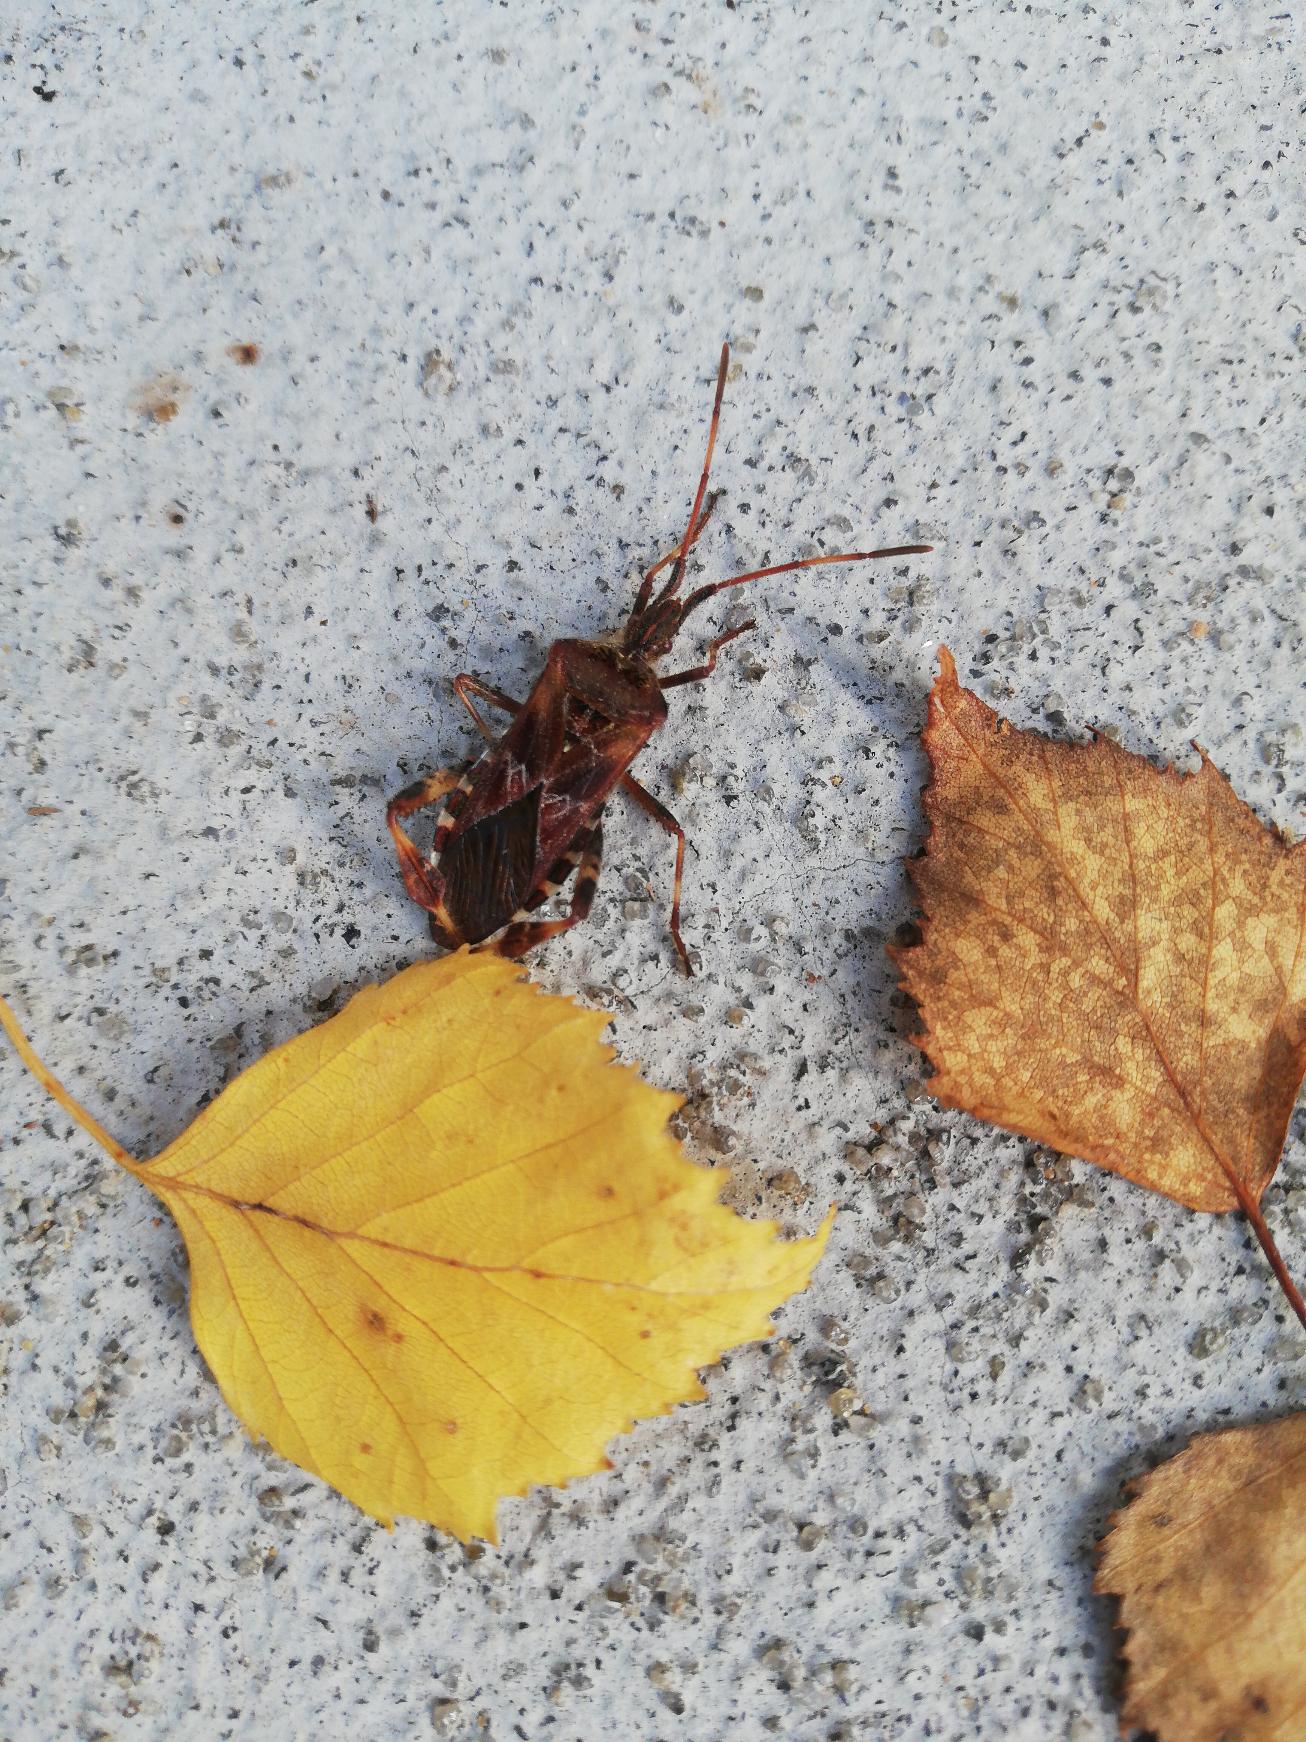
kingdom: Animalia
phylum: Arthropoda
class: Insecta
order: Hemiptera
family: Coreidae
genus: Leptoglossus
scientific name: Leptoglossus occidentalis
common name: Amerikansk fyrretæge
